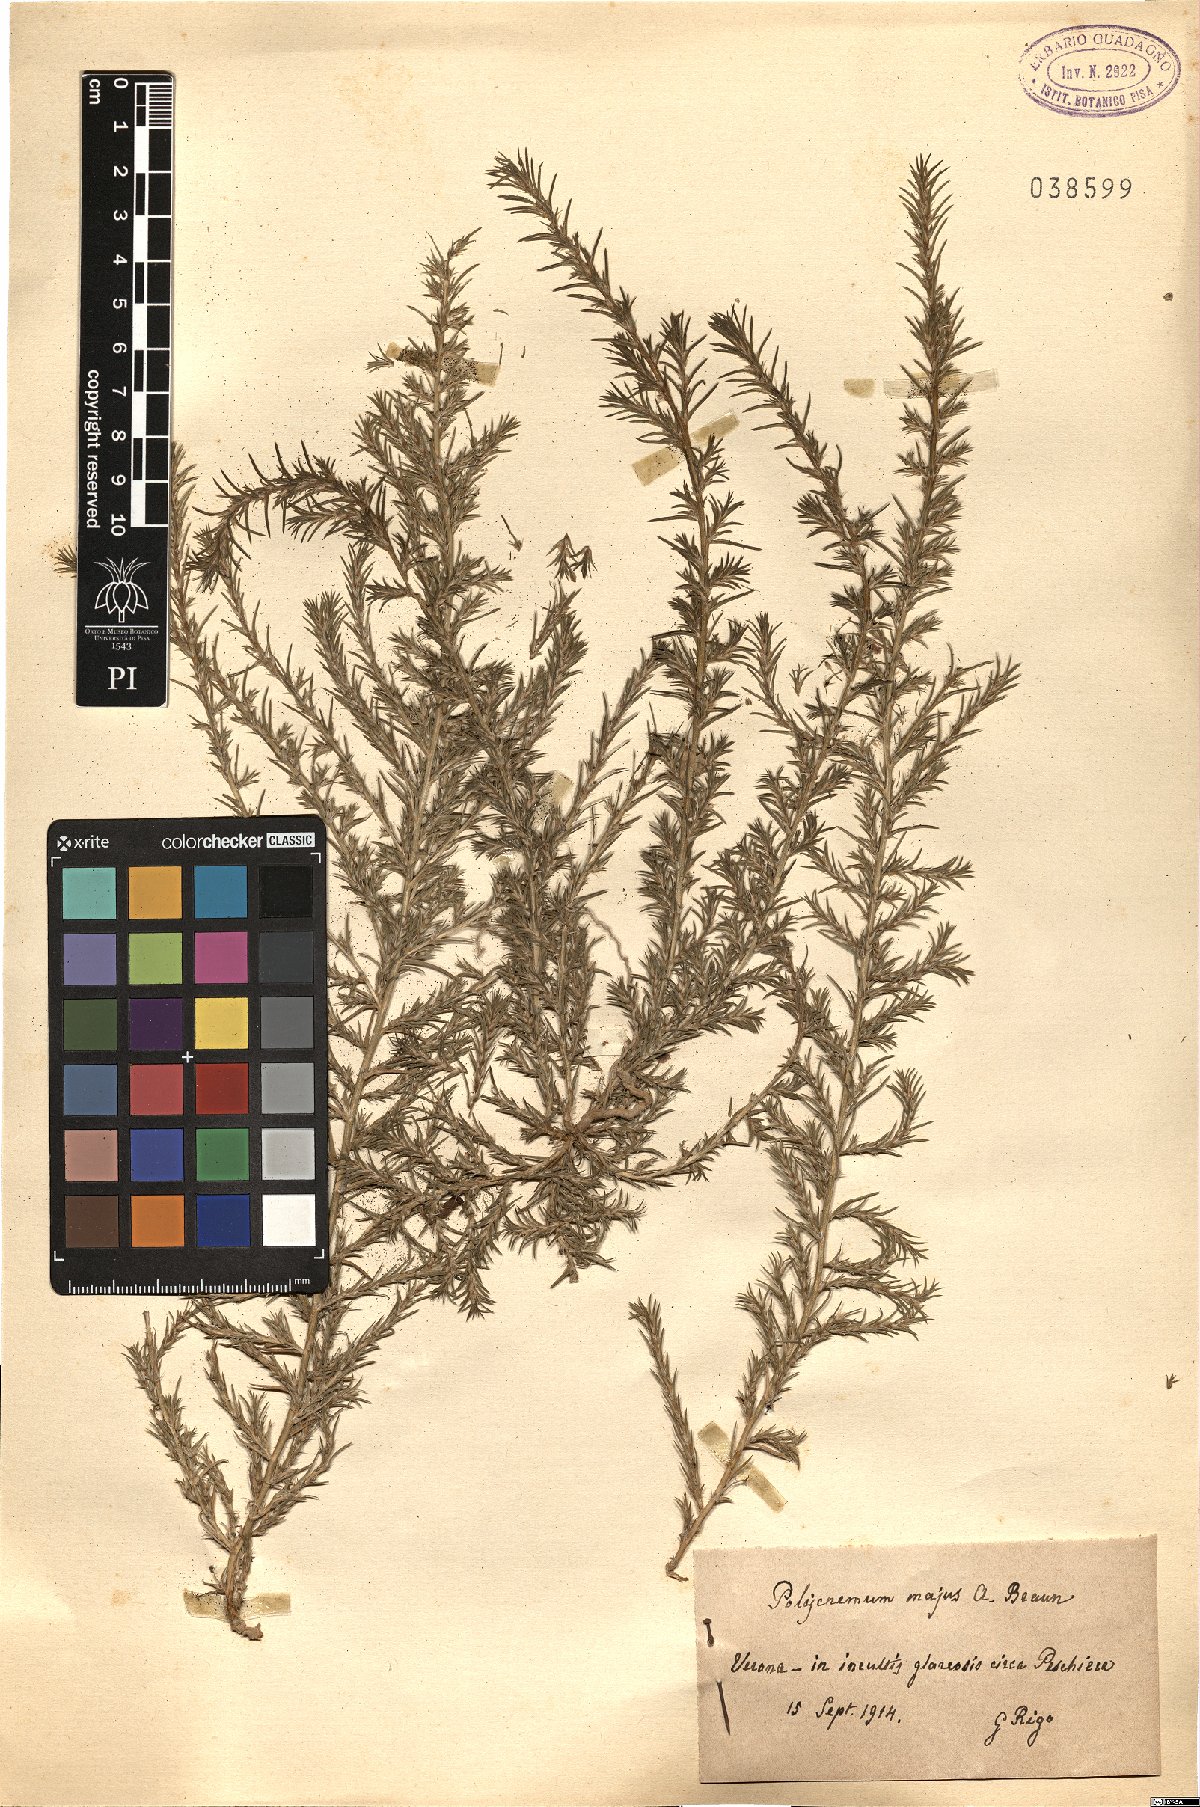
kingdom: Plantae
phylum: Tracheophyta
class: Magnoliopsida
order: Caryophyllales
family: Amaranthaceae
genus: Polycnemum
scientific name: Polycnemum majus
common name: Giant needleleaf
